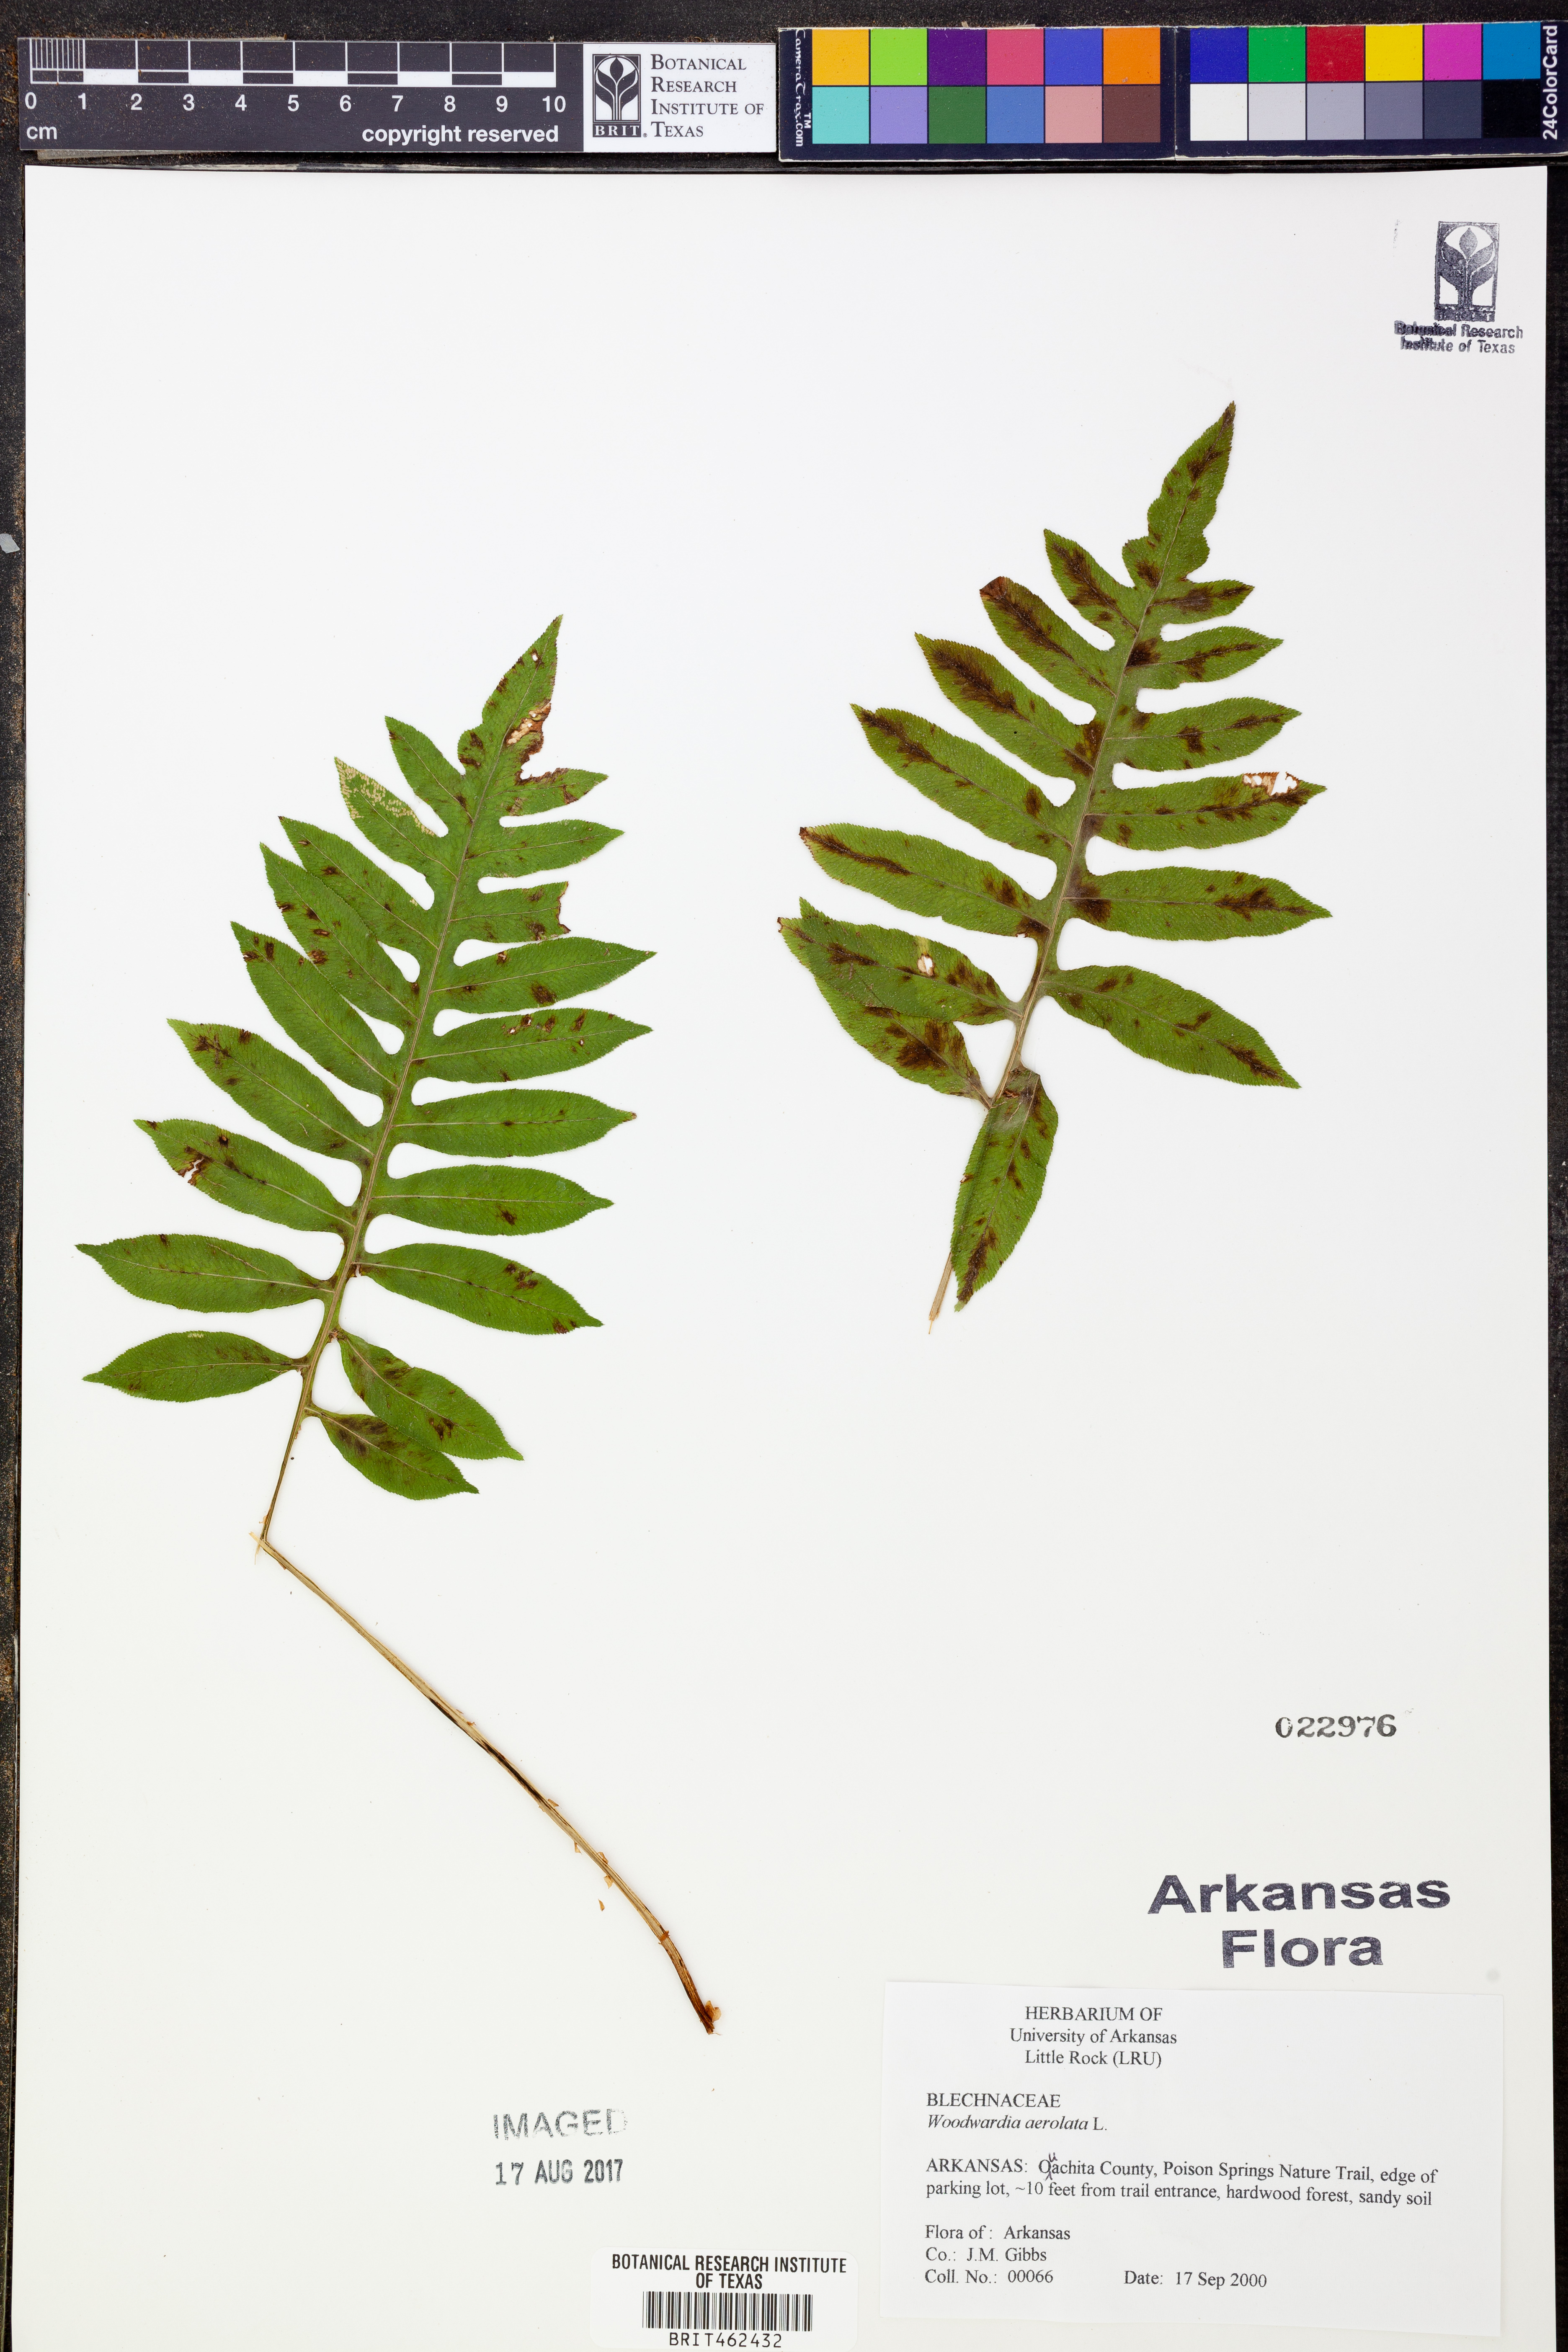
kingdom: Plantae
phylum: Tracheophyta
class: Polypodiopsida
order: Polypodiales
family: Blechnaceae
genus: Lorinseria
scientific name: Lorinseria areolata
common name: Dwarf chain fern
